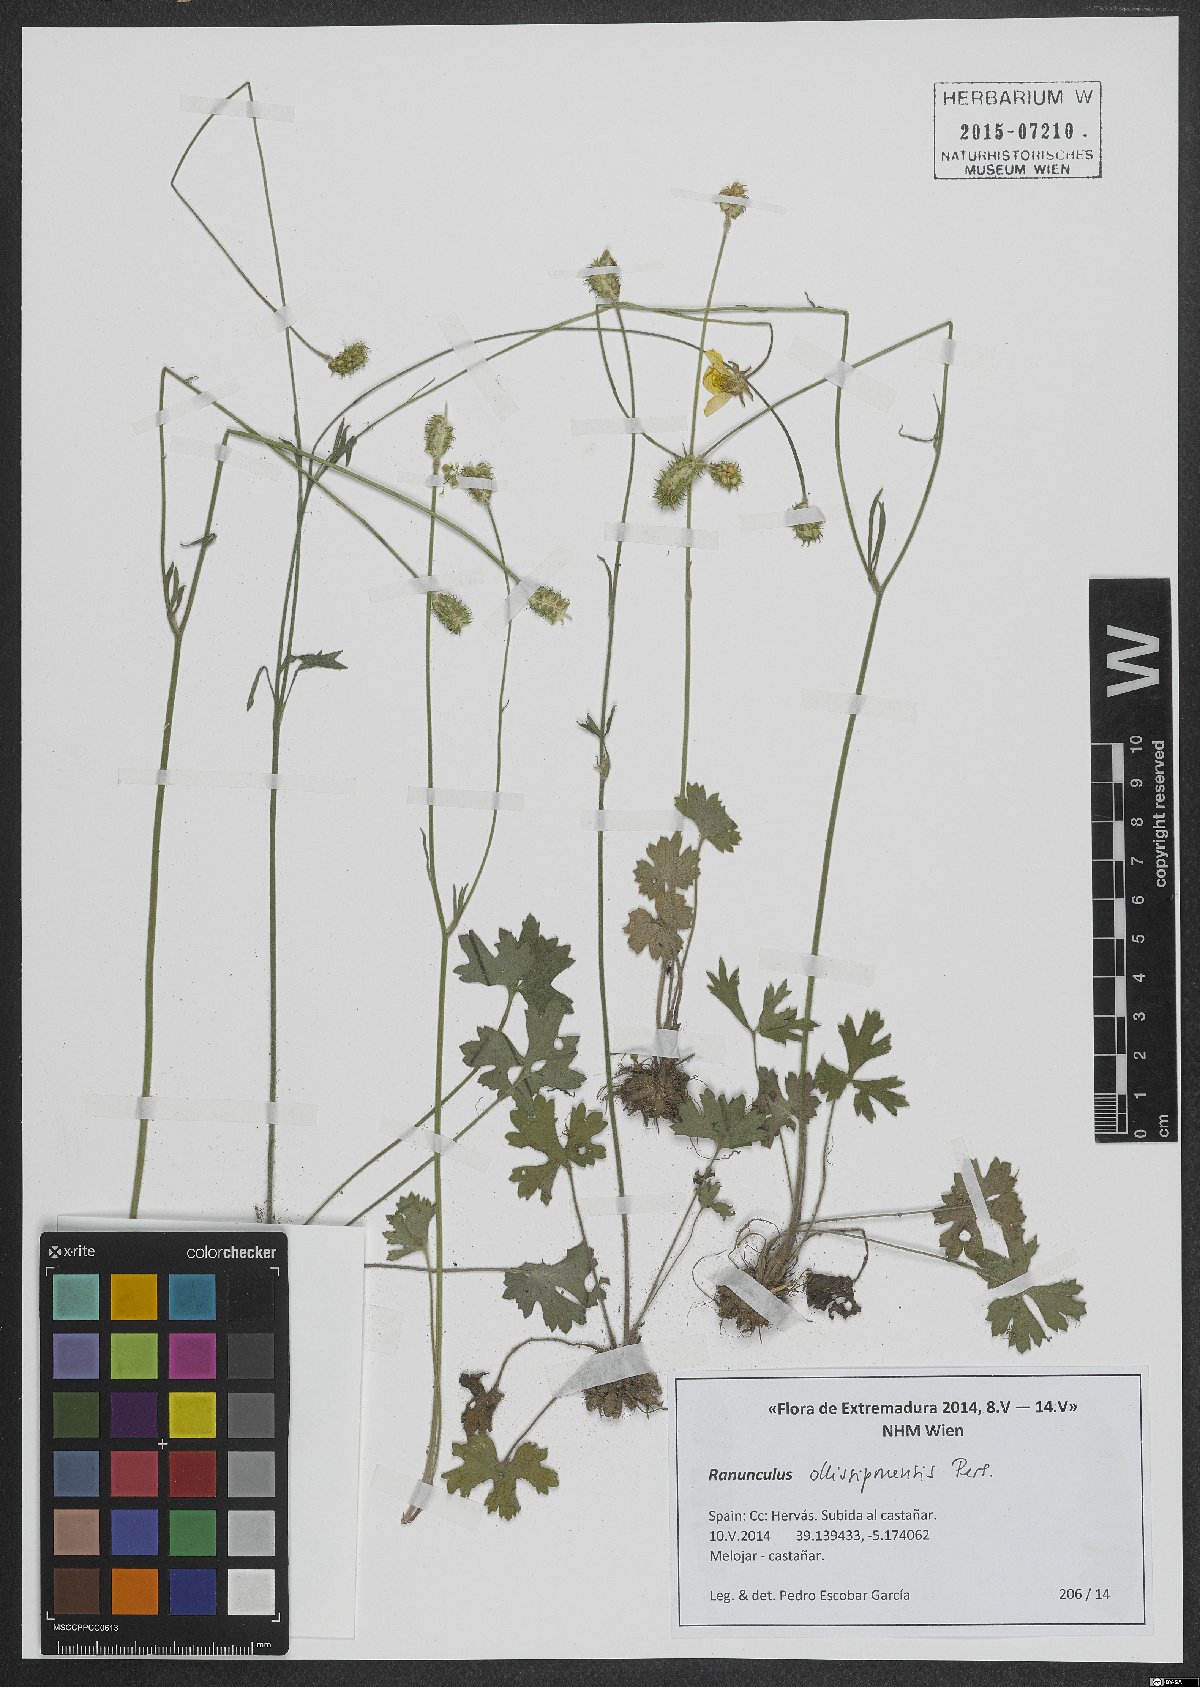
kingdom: Plantae
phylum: Tracheophyta
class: Magnoliopsida
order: Ranunculales
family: Ranunculaceae
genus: Ranunculus
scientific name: Ranunculus ollissiponensis
